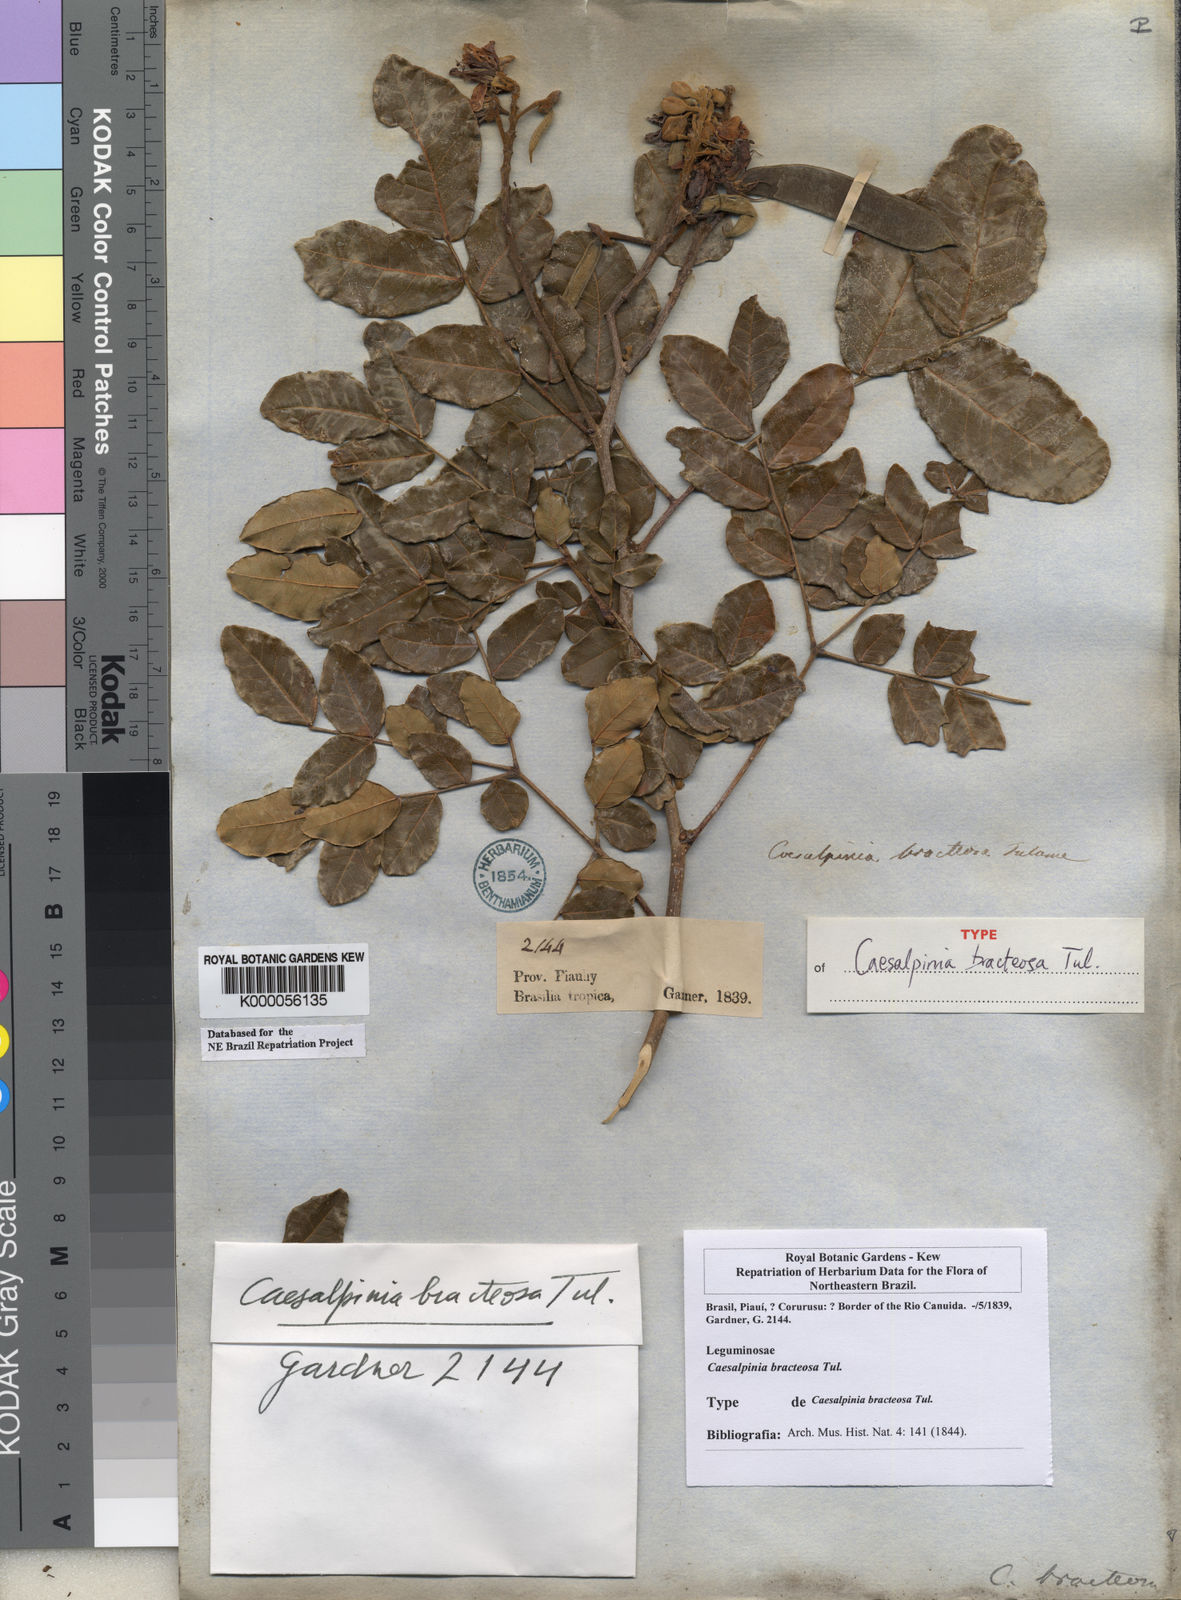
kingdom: Plantae
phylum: Tracheophyta
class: Magnoliopsida
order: Fabales
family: Fabaceae
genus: Cenostigma
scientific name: Cenostigma bracteosum
